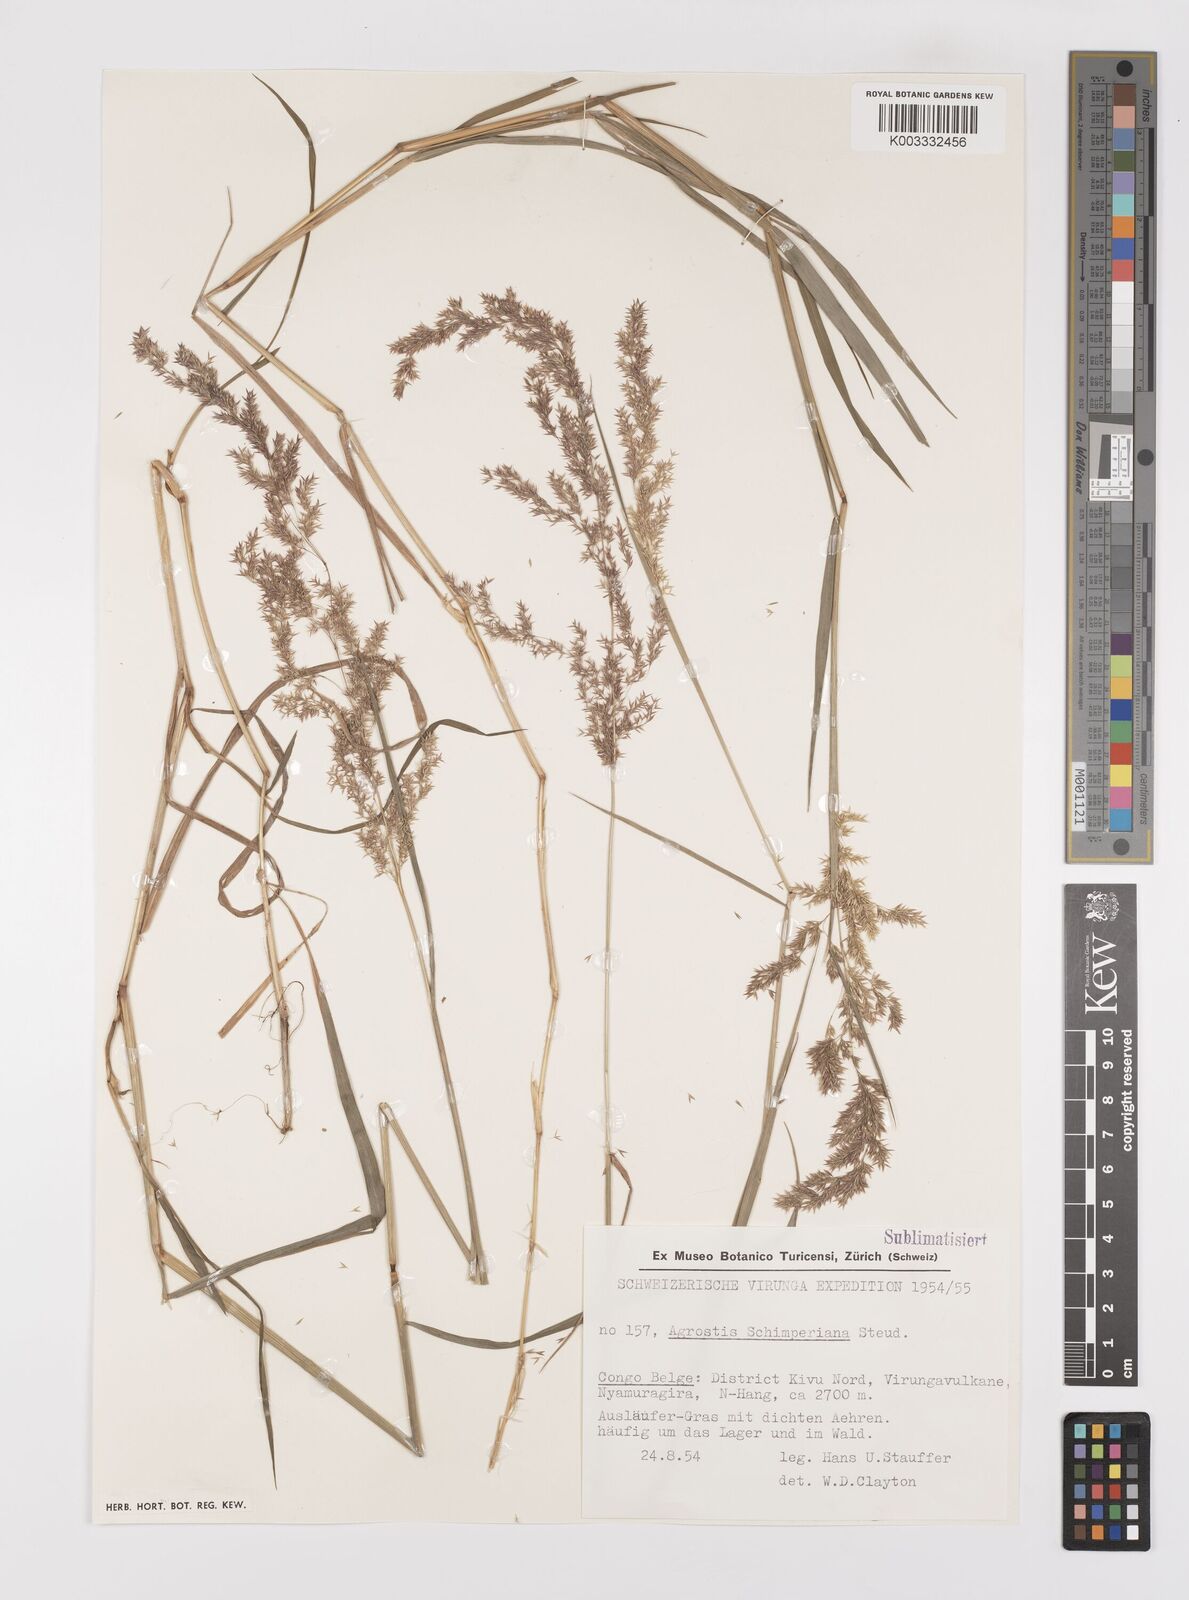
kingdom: Plantae
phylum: Tracheophyta
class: Liliopsida
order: Poales
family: Poaceae
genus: Polypogon
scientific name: Polypogon schimperianus
